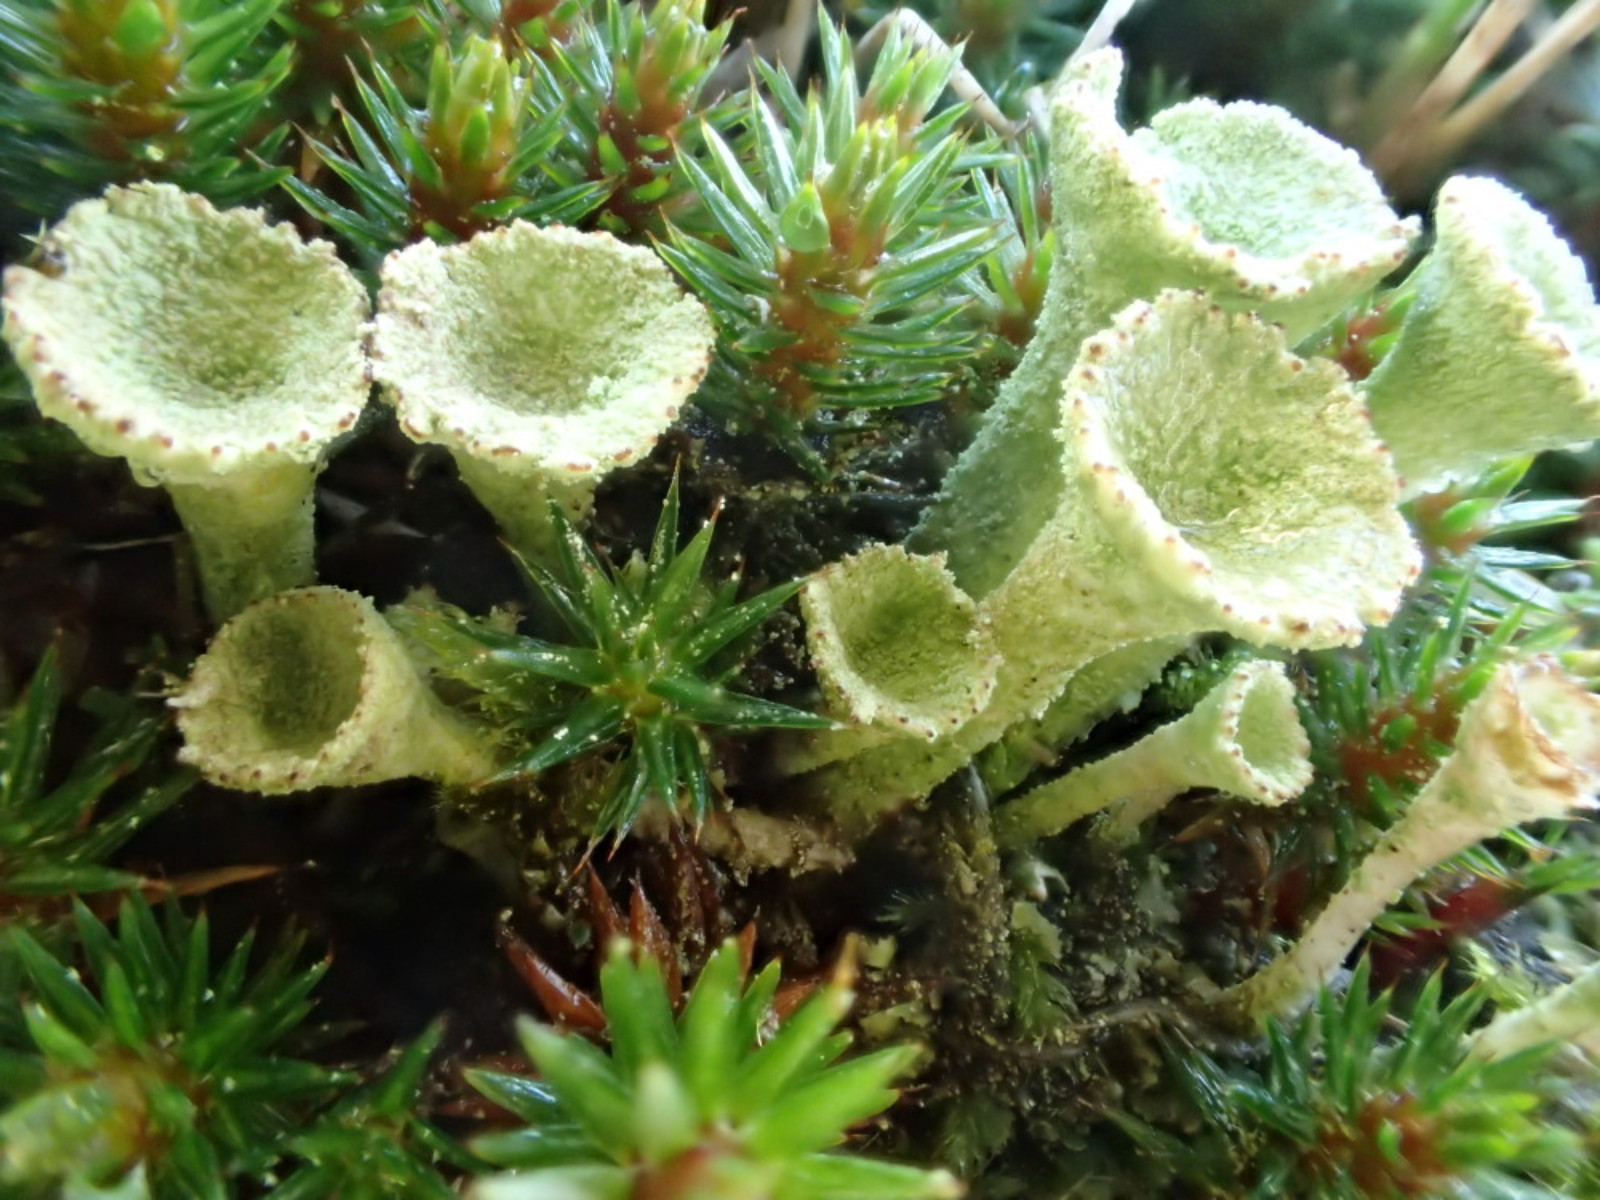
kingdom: Fungi
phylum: Ascomycota
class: Lecanoromycetes
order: Lecanorales
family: Cladoniaceae
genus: Cladonia
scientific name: Cladonia fimbriata
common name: bleggrøn bægerlav
